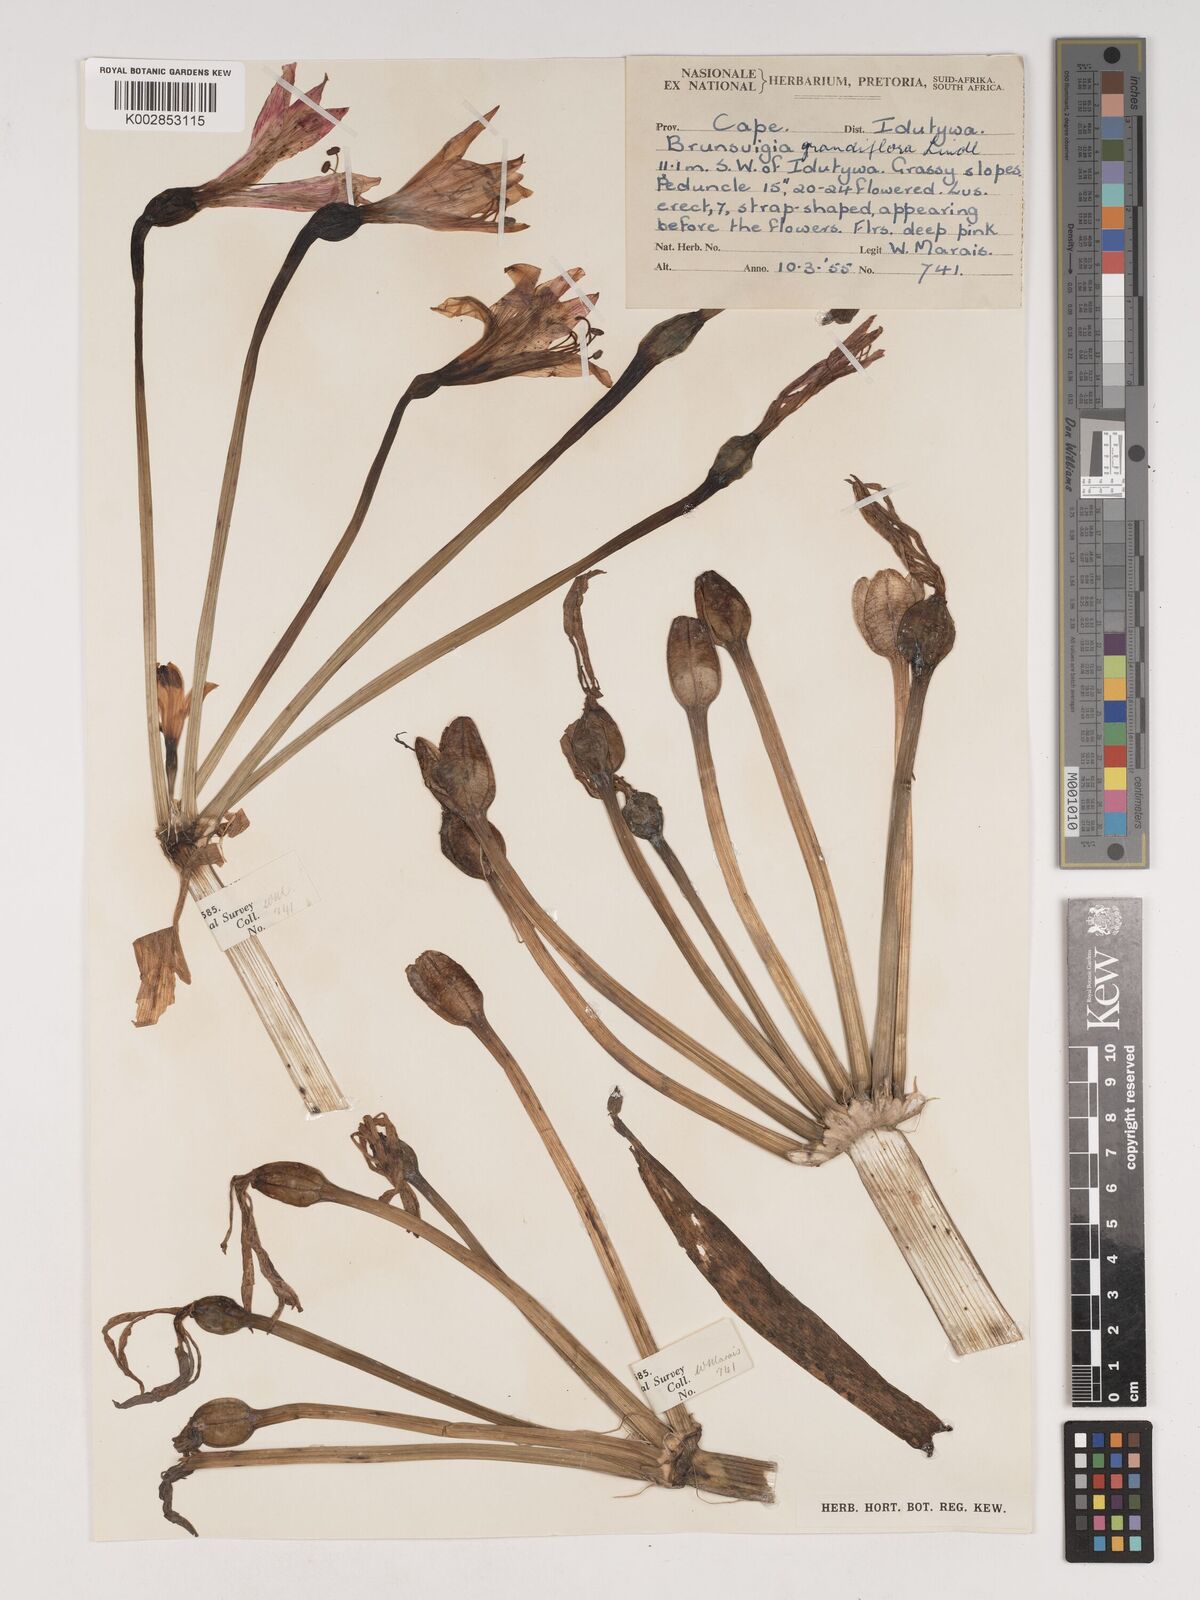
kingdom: Plantae
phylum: Tracheophyta
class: Liliopsida
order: Asparagales
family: Amaryllidaceae
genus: Brunsvigia
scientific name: Brunsvigia grandiflora
